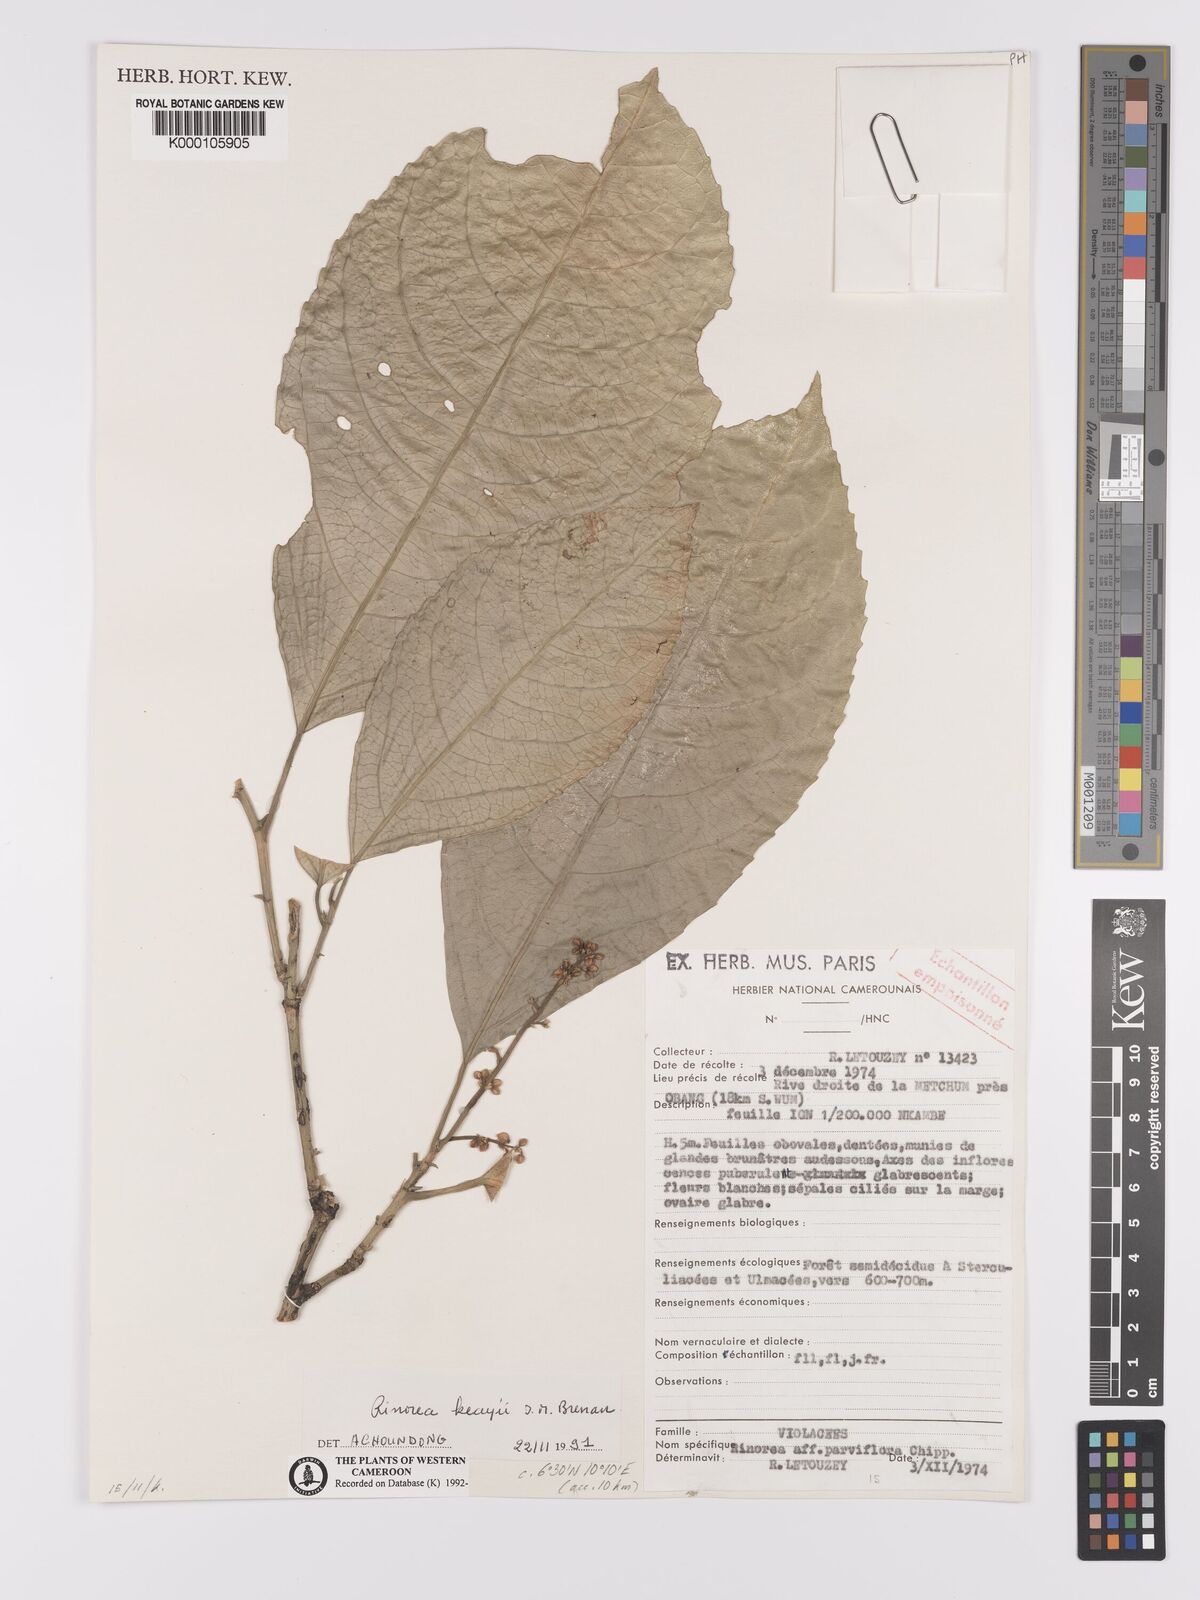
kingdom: Plantae
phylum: Tracheophyta
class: Magnoliopsida
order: Malpighiales
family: Violaceae
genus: Rinorea
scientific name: Rinorea keayi
